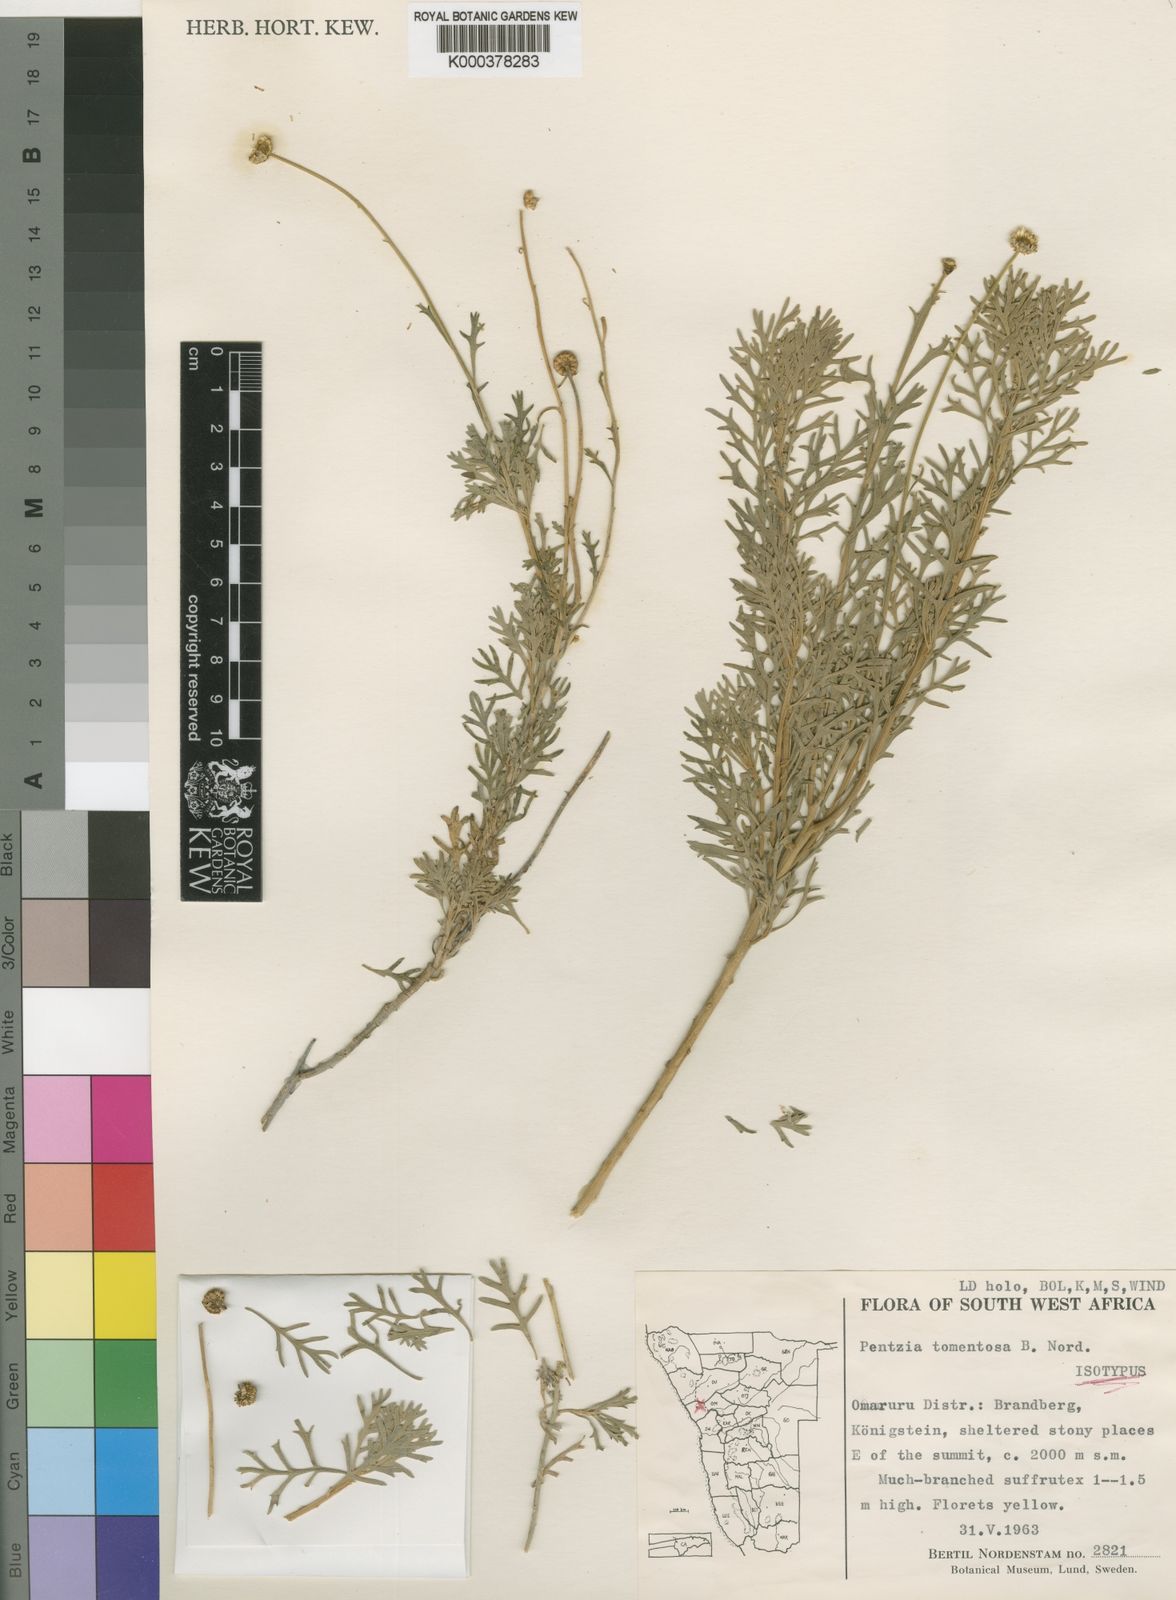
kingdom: Plantae
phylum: Tracheophyta
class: Magnoliopsida
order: Asterales
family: Asteraceae
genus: Pentzia
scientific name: Pentzia tomentosa
